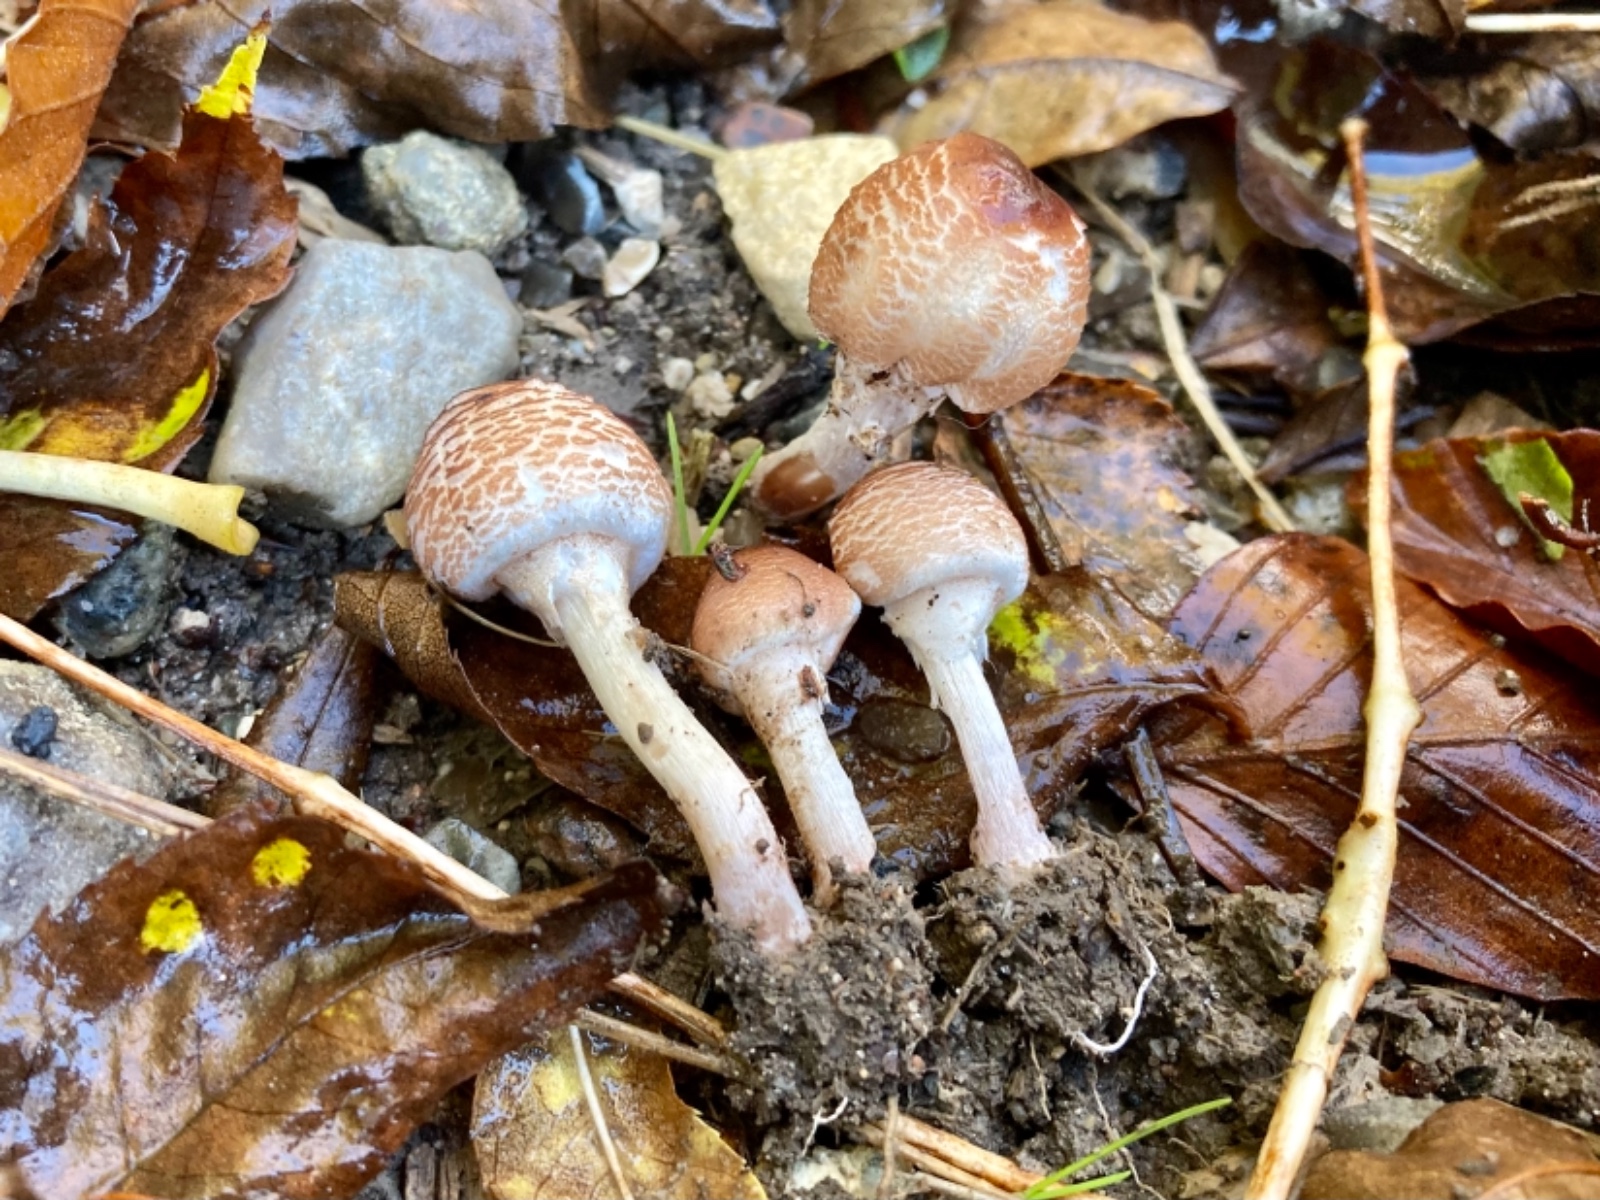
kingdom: Fungi
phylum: Basidiomycota
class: Agaricomycetes
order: Agaricales
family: Agaricaceae
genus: Lepiota
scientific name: Lepiota cristata
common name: stinkende parasolhat
